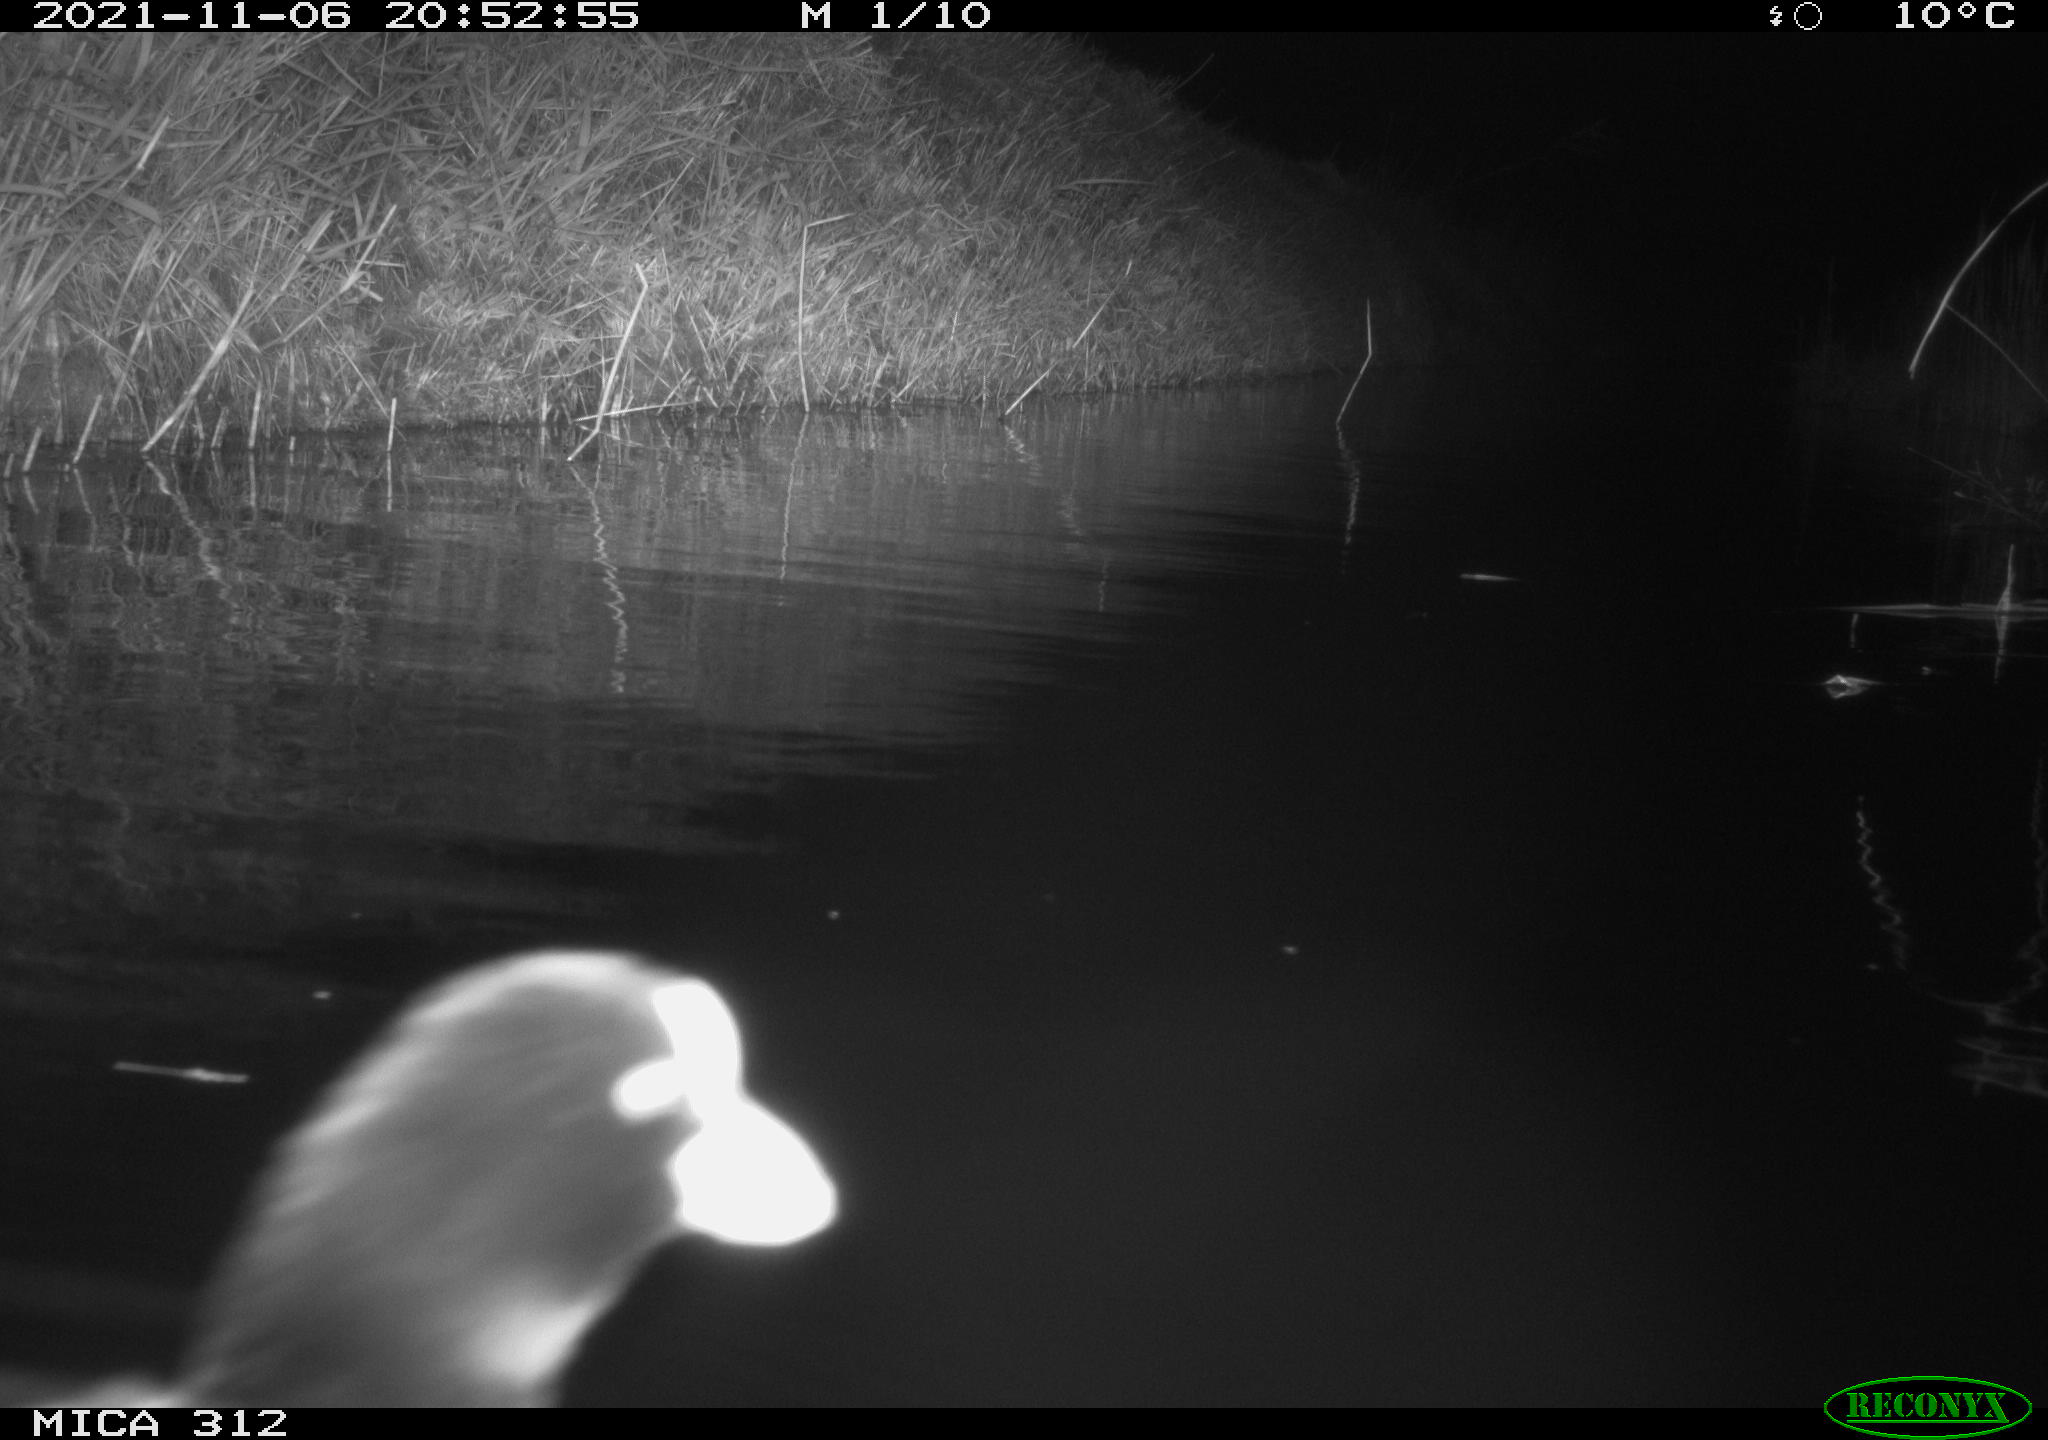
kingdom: Animalia
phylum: Chordata
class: Aves
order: Anseriformes
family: Anatidae
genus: Anas
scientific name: Anas
